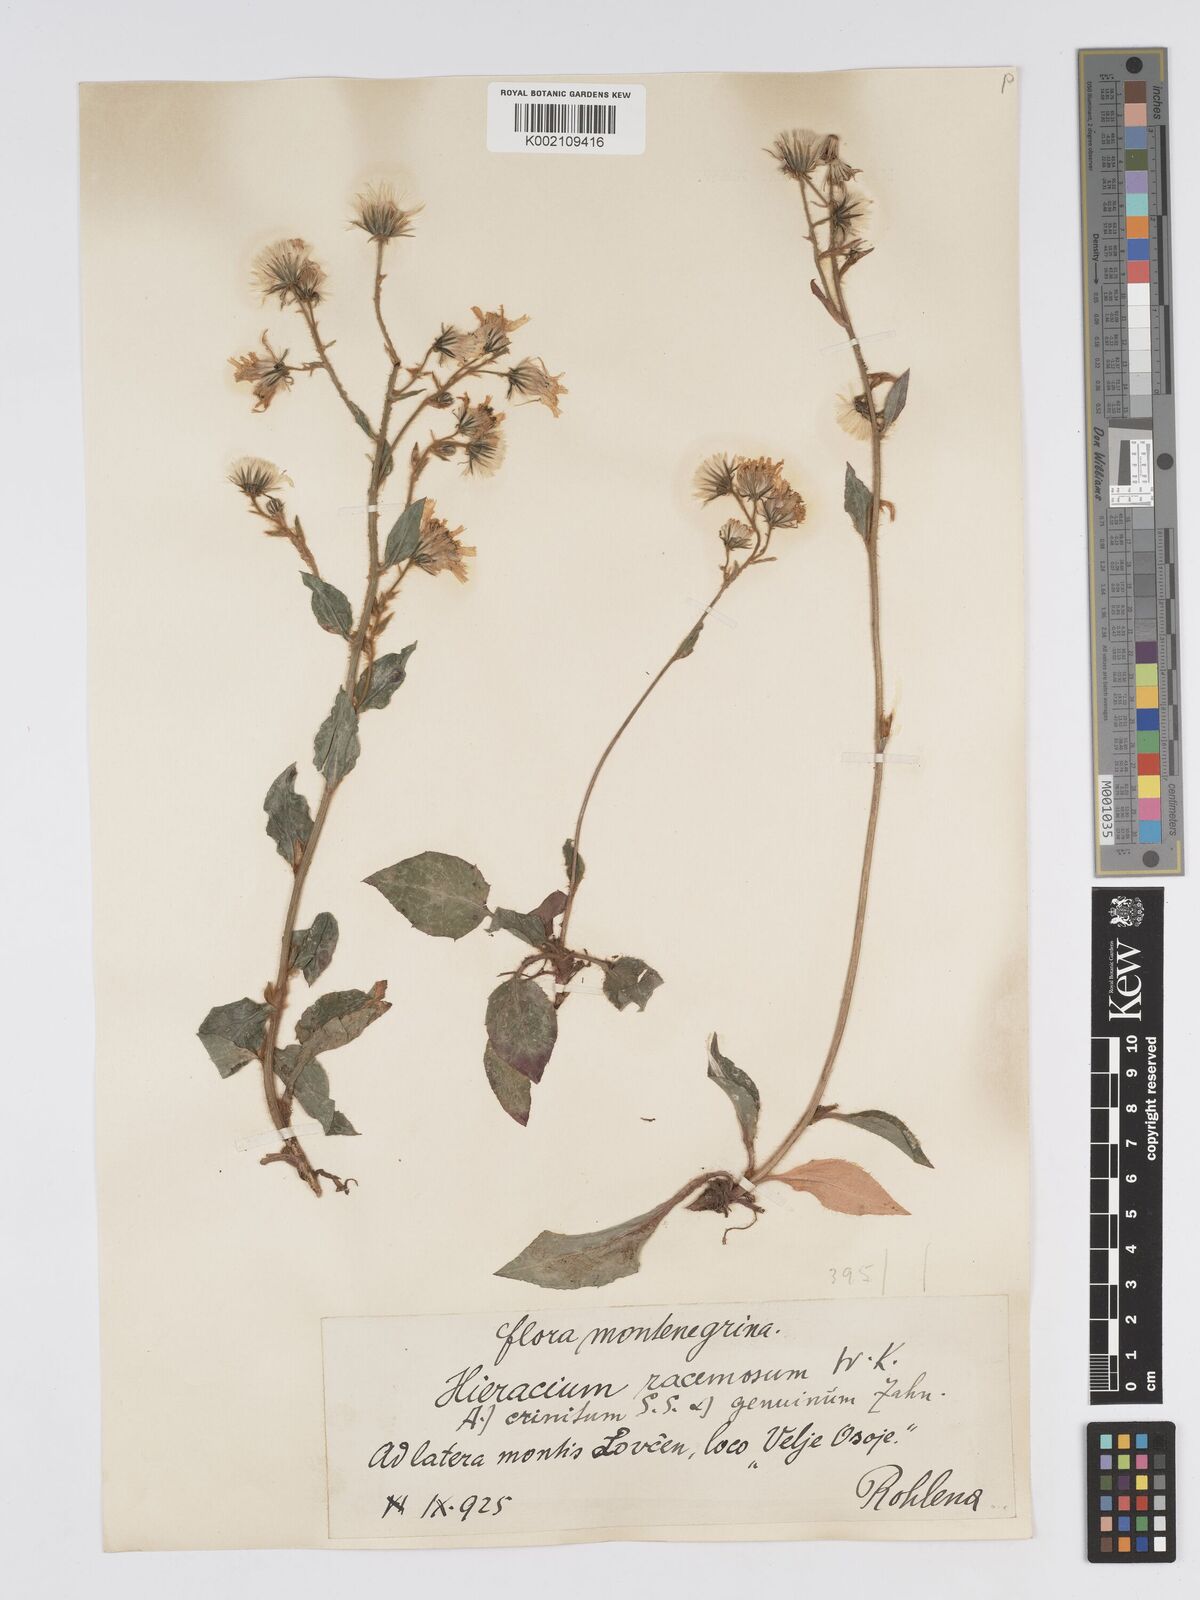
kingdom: Plantae
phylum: Tracheophyta
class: Magnoliopsida
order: Asterales
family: Asteraceae
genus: Hieracium
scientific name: Hieracium racemosum
